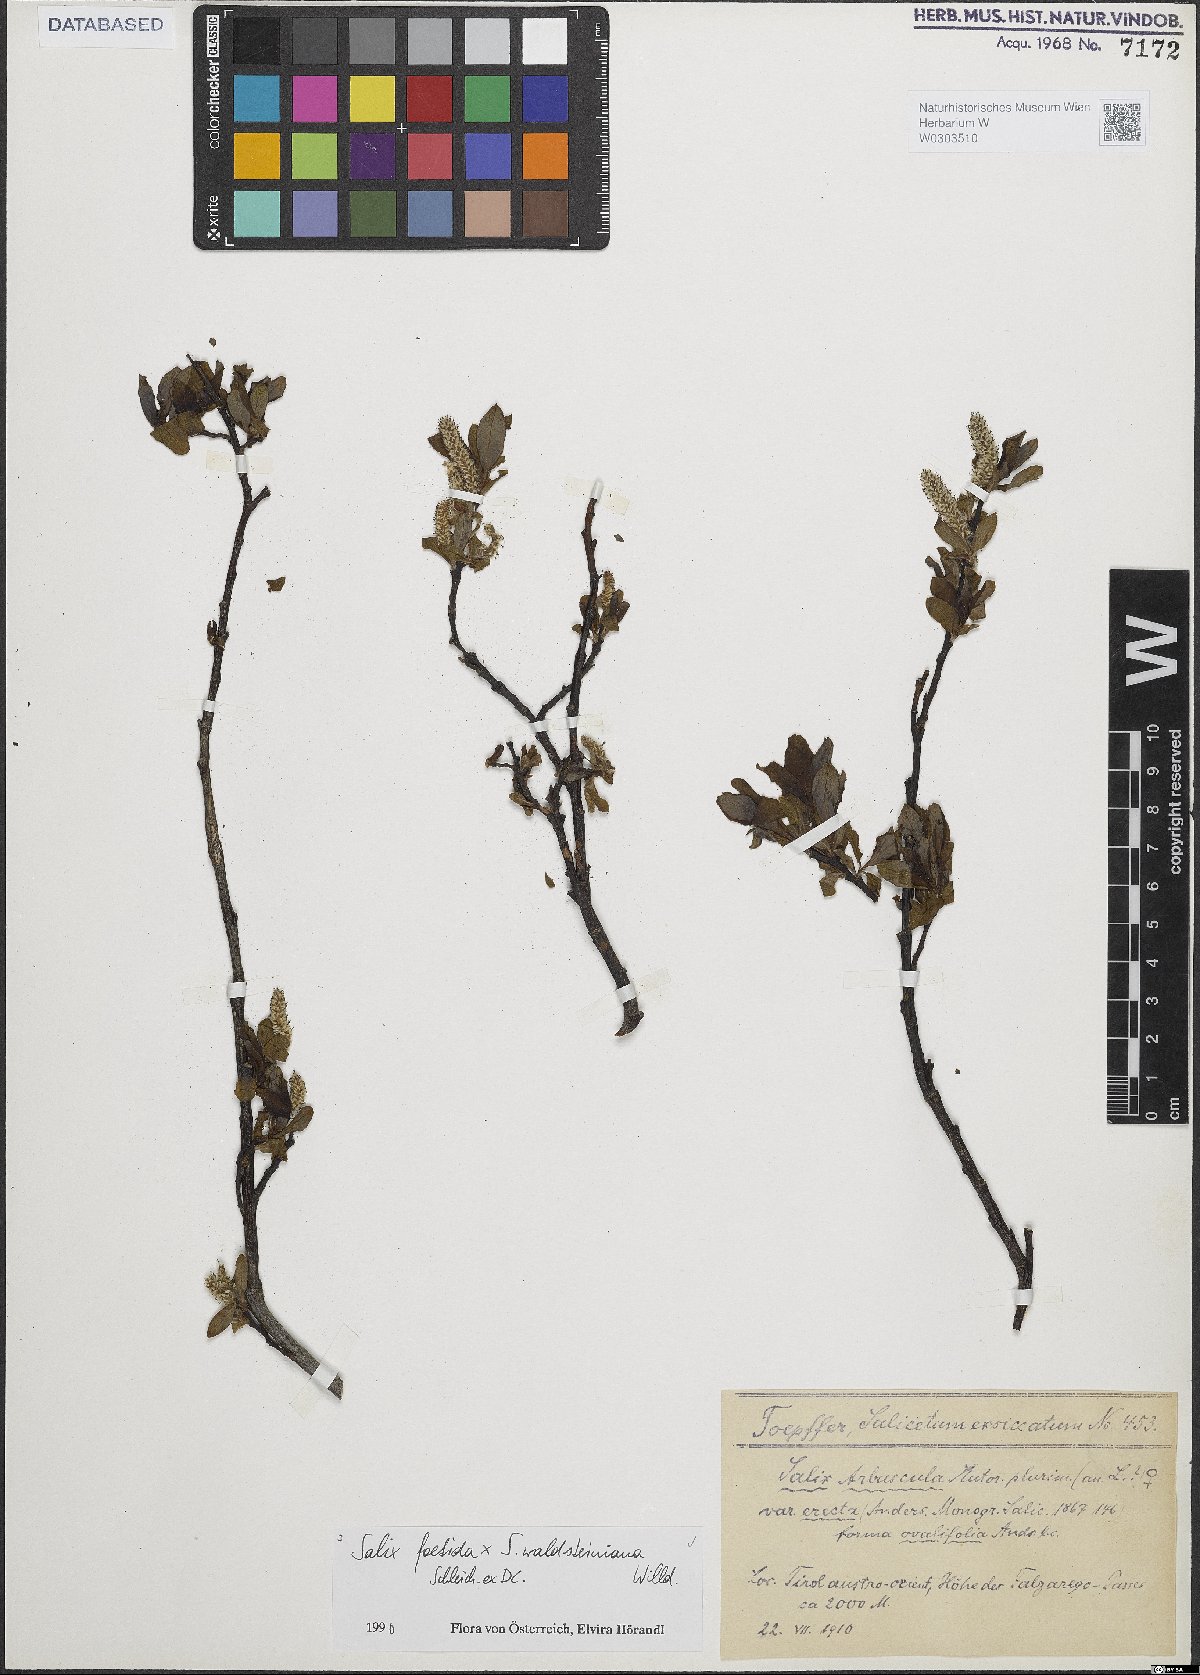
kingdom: Plantae
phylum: Tracheophyta
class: Magnoliopsida
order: Malpighiales
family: Salicaceae
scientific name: Salicaceae
